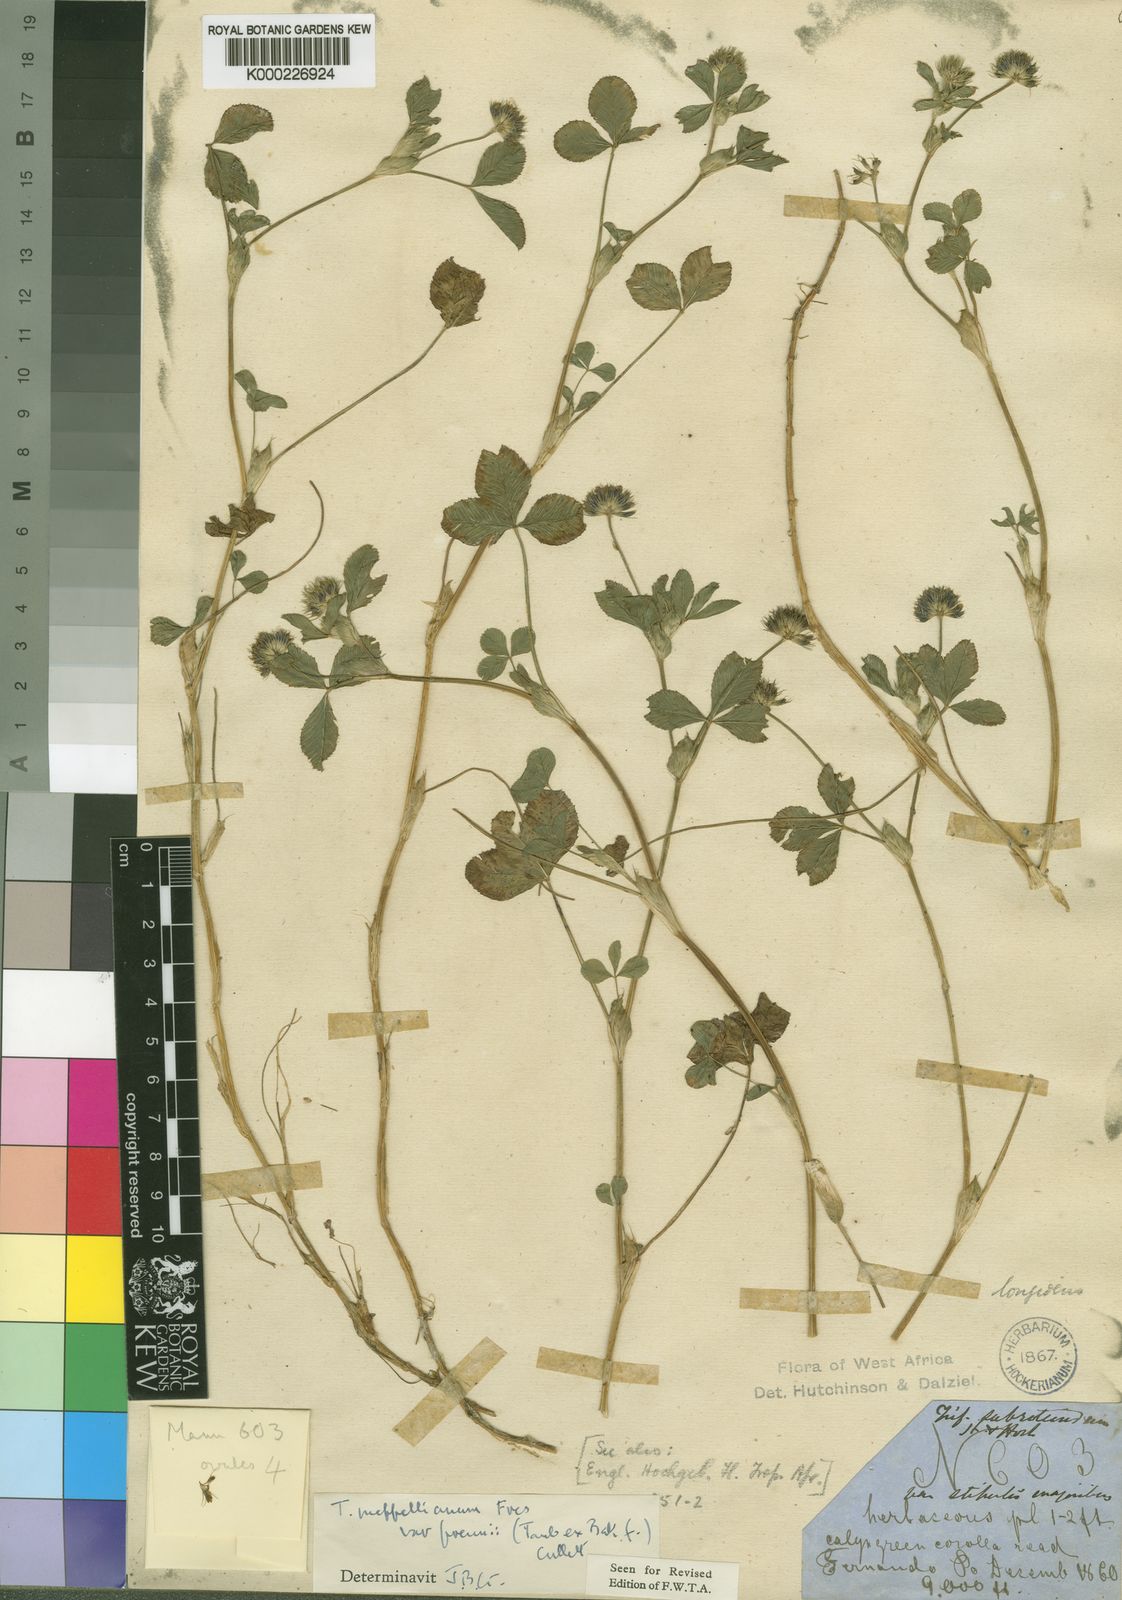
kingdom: Plantae
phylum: Tracheophyta
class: Magnoliopsida
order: Fabales
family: Fabaceae
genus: Trifolium
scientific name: Trifolium
